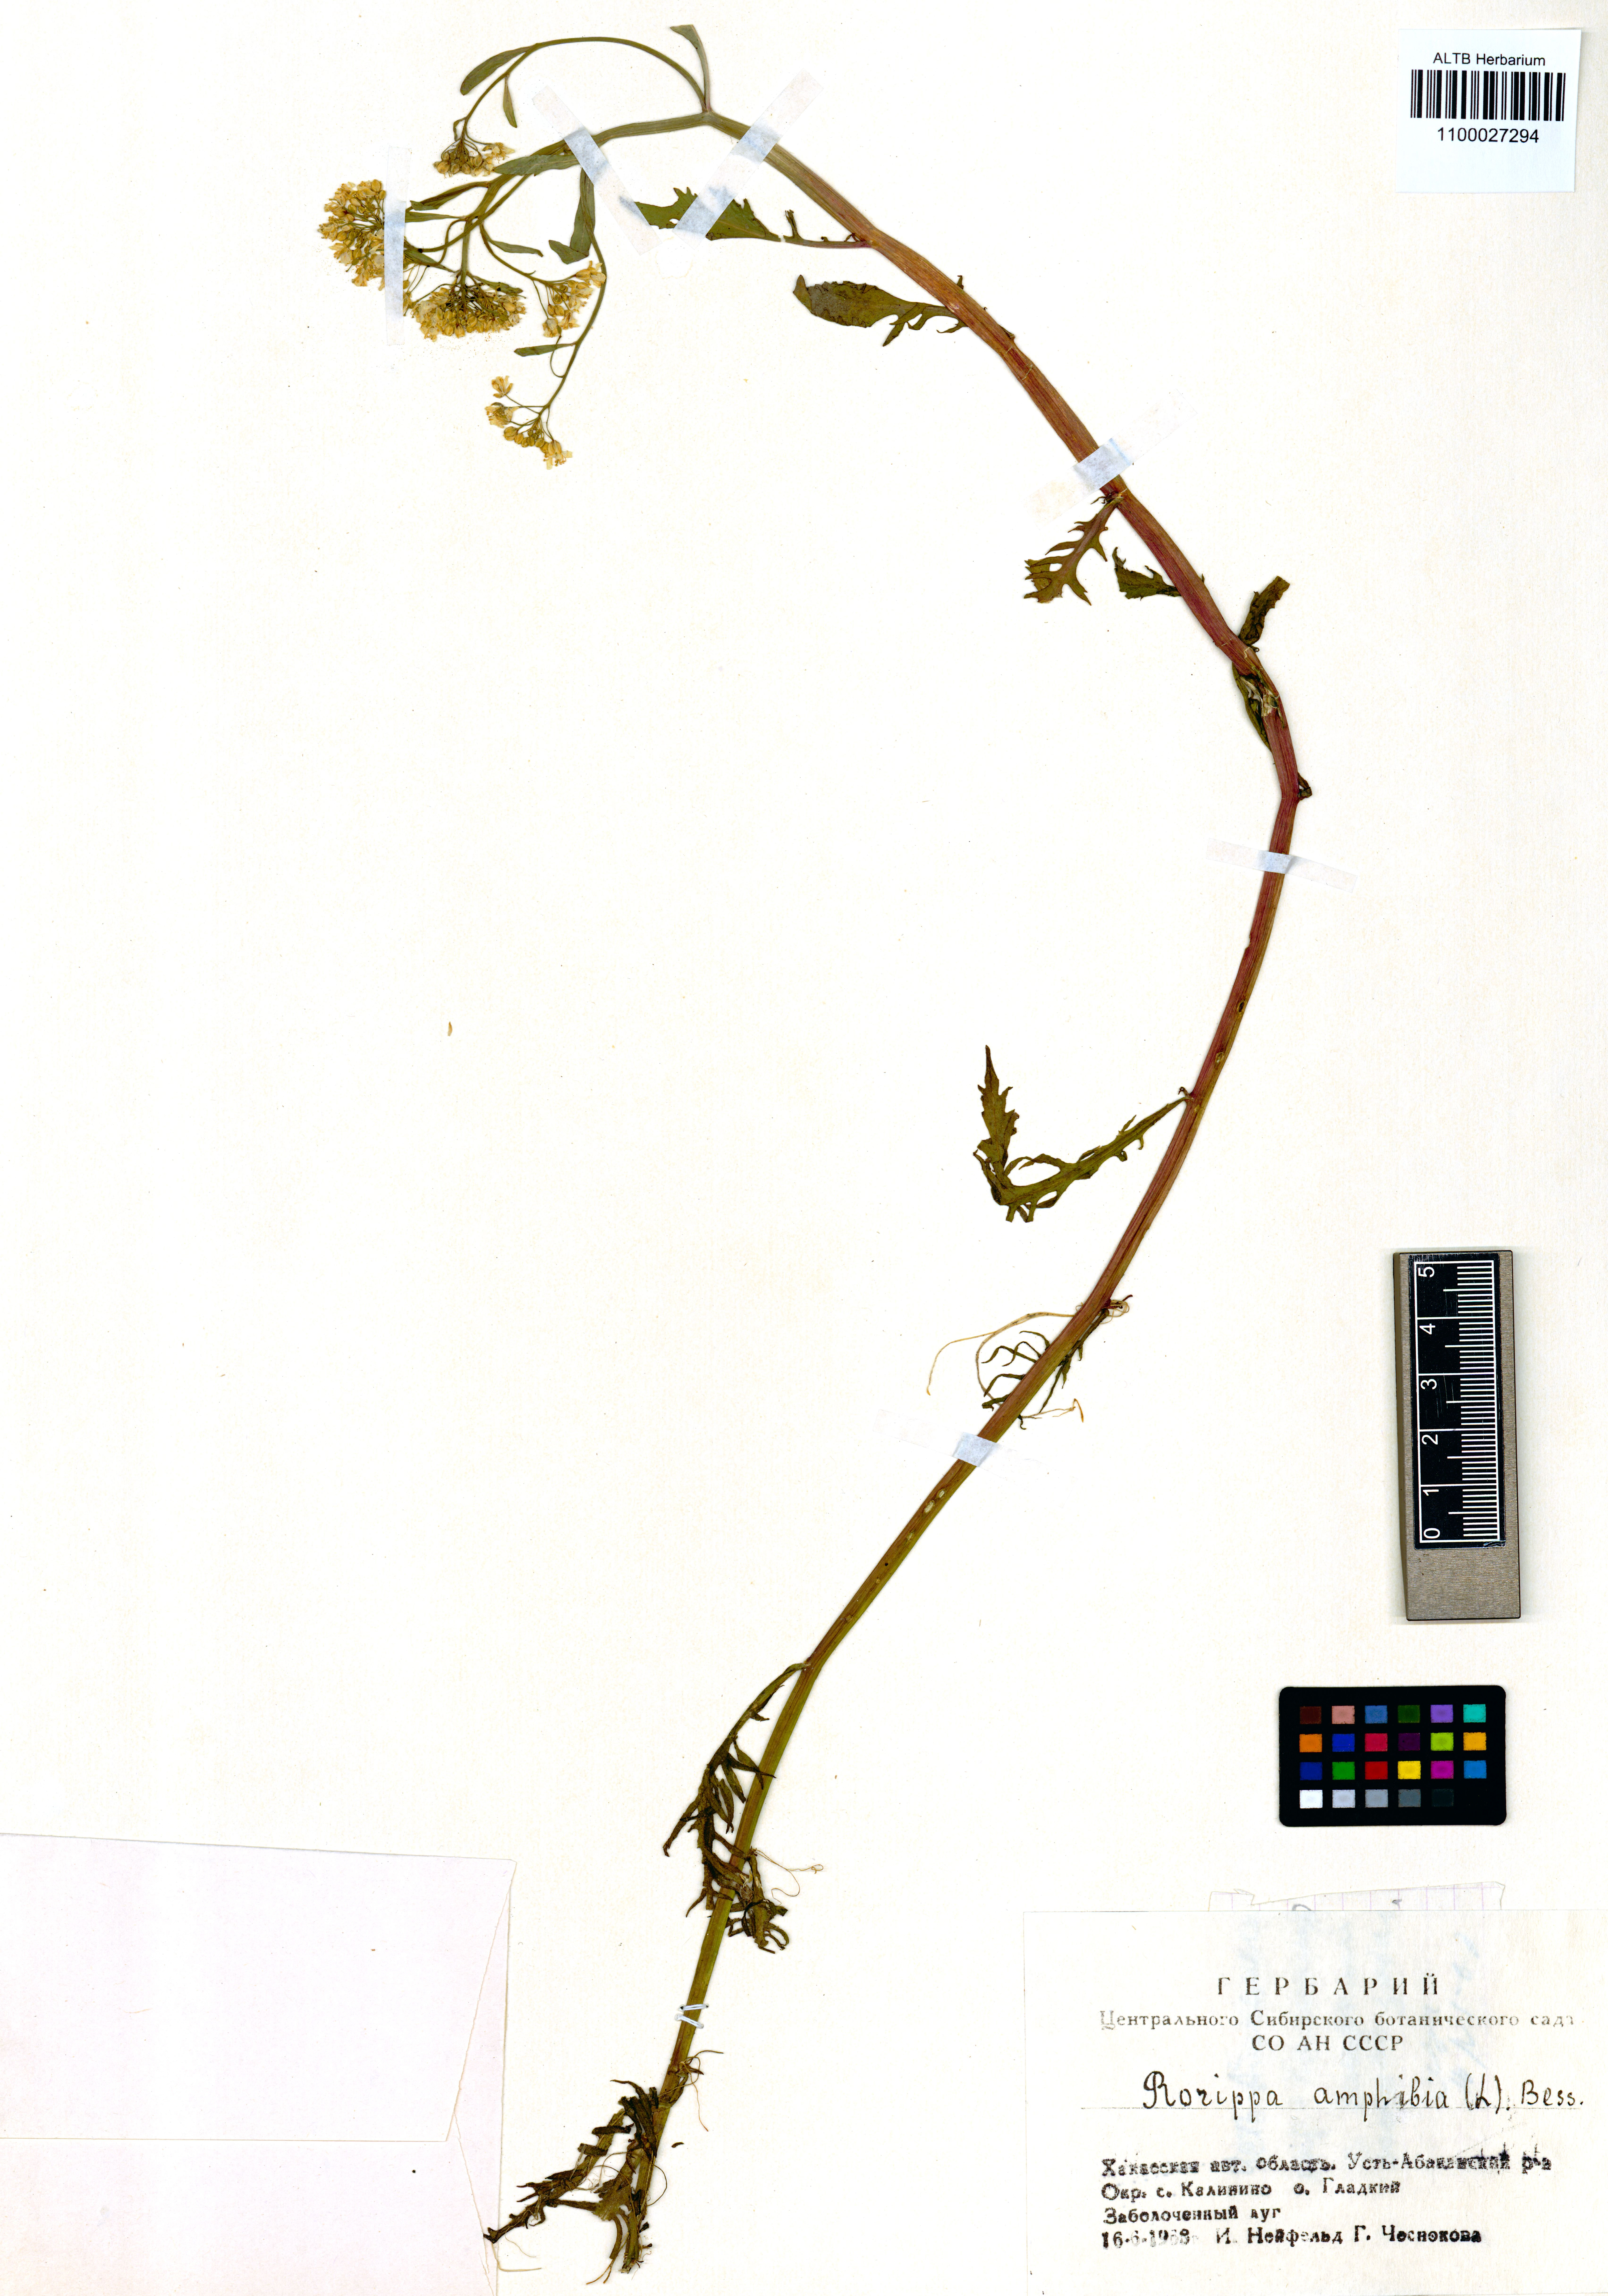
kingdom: Plantae
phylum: Tracheophyta
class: Magnoliopsida
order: Brassicales
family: Brassicaceae
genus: Rorippa
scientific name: Rorippa amphibia
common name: Great yellow-cress
